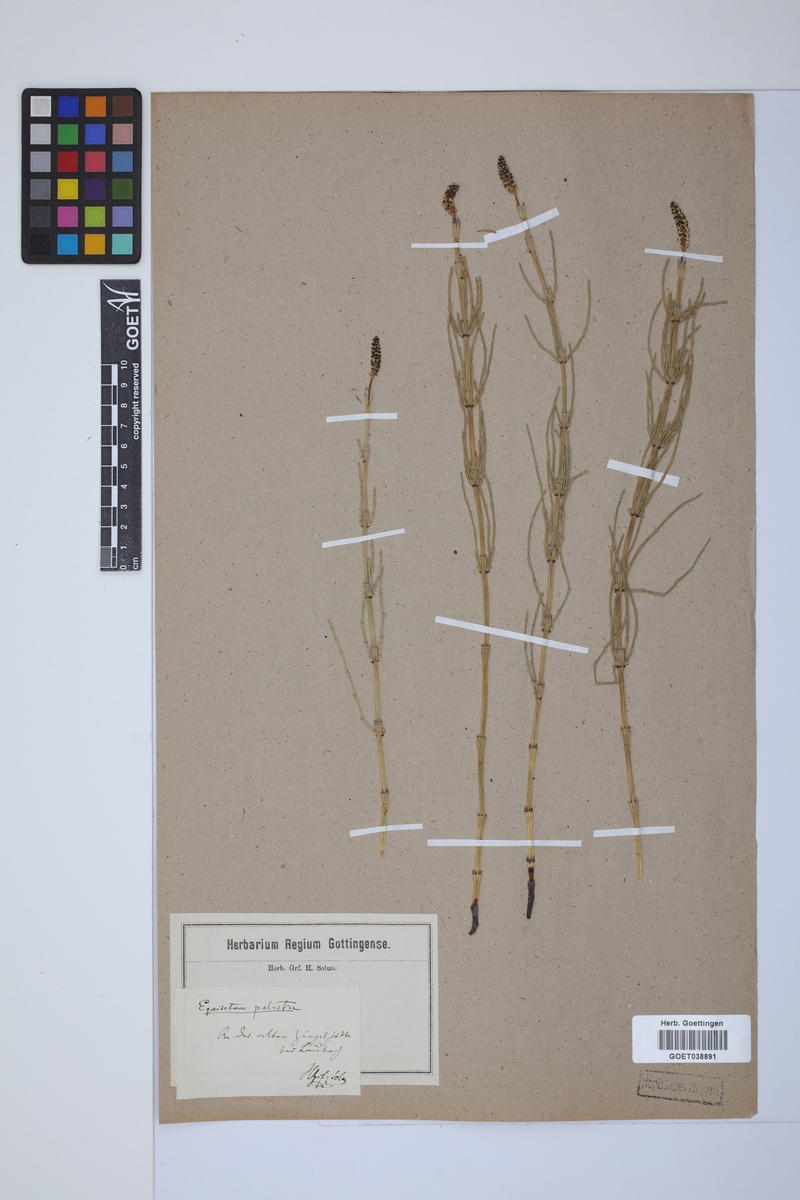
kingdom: Plantae
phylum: Tracheophyta
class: Polypodiopsida
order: Equisetales
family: Equisetaceae
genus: Equisetum
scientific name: Equisetum palustre
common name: Marsh horsetail
